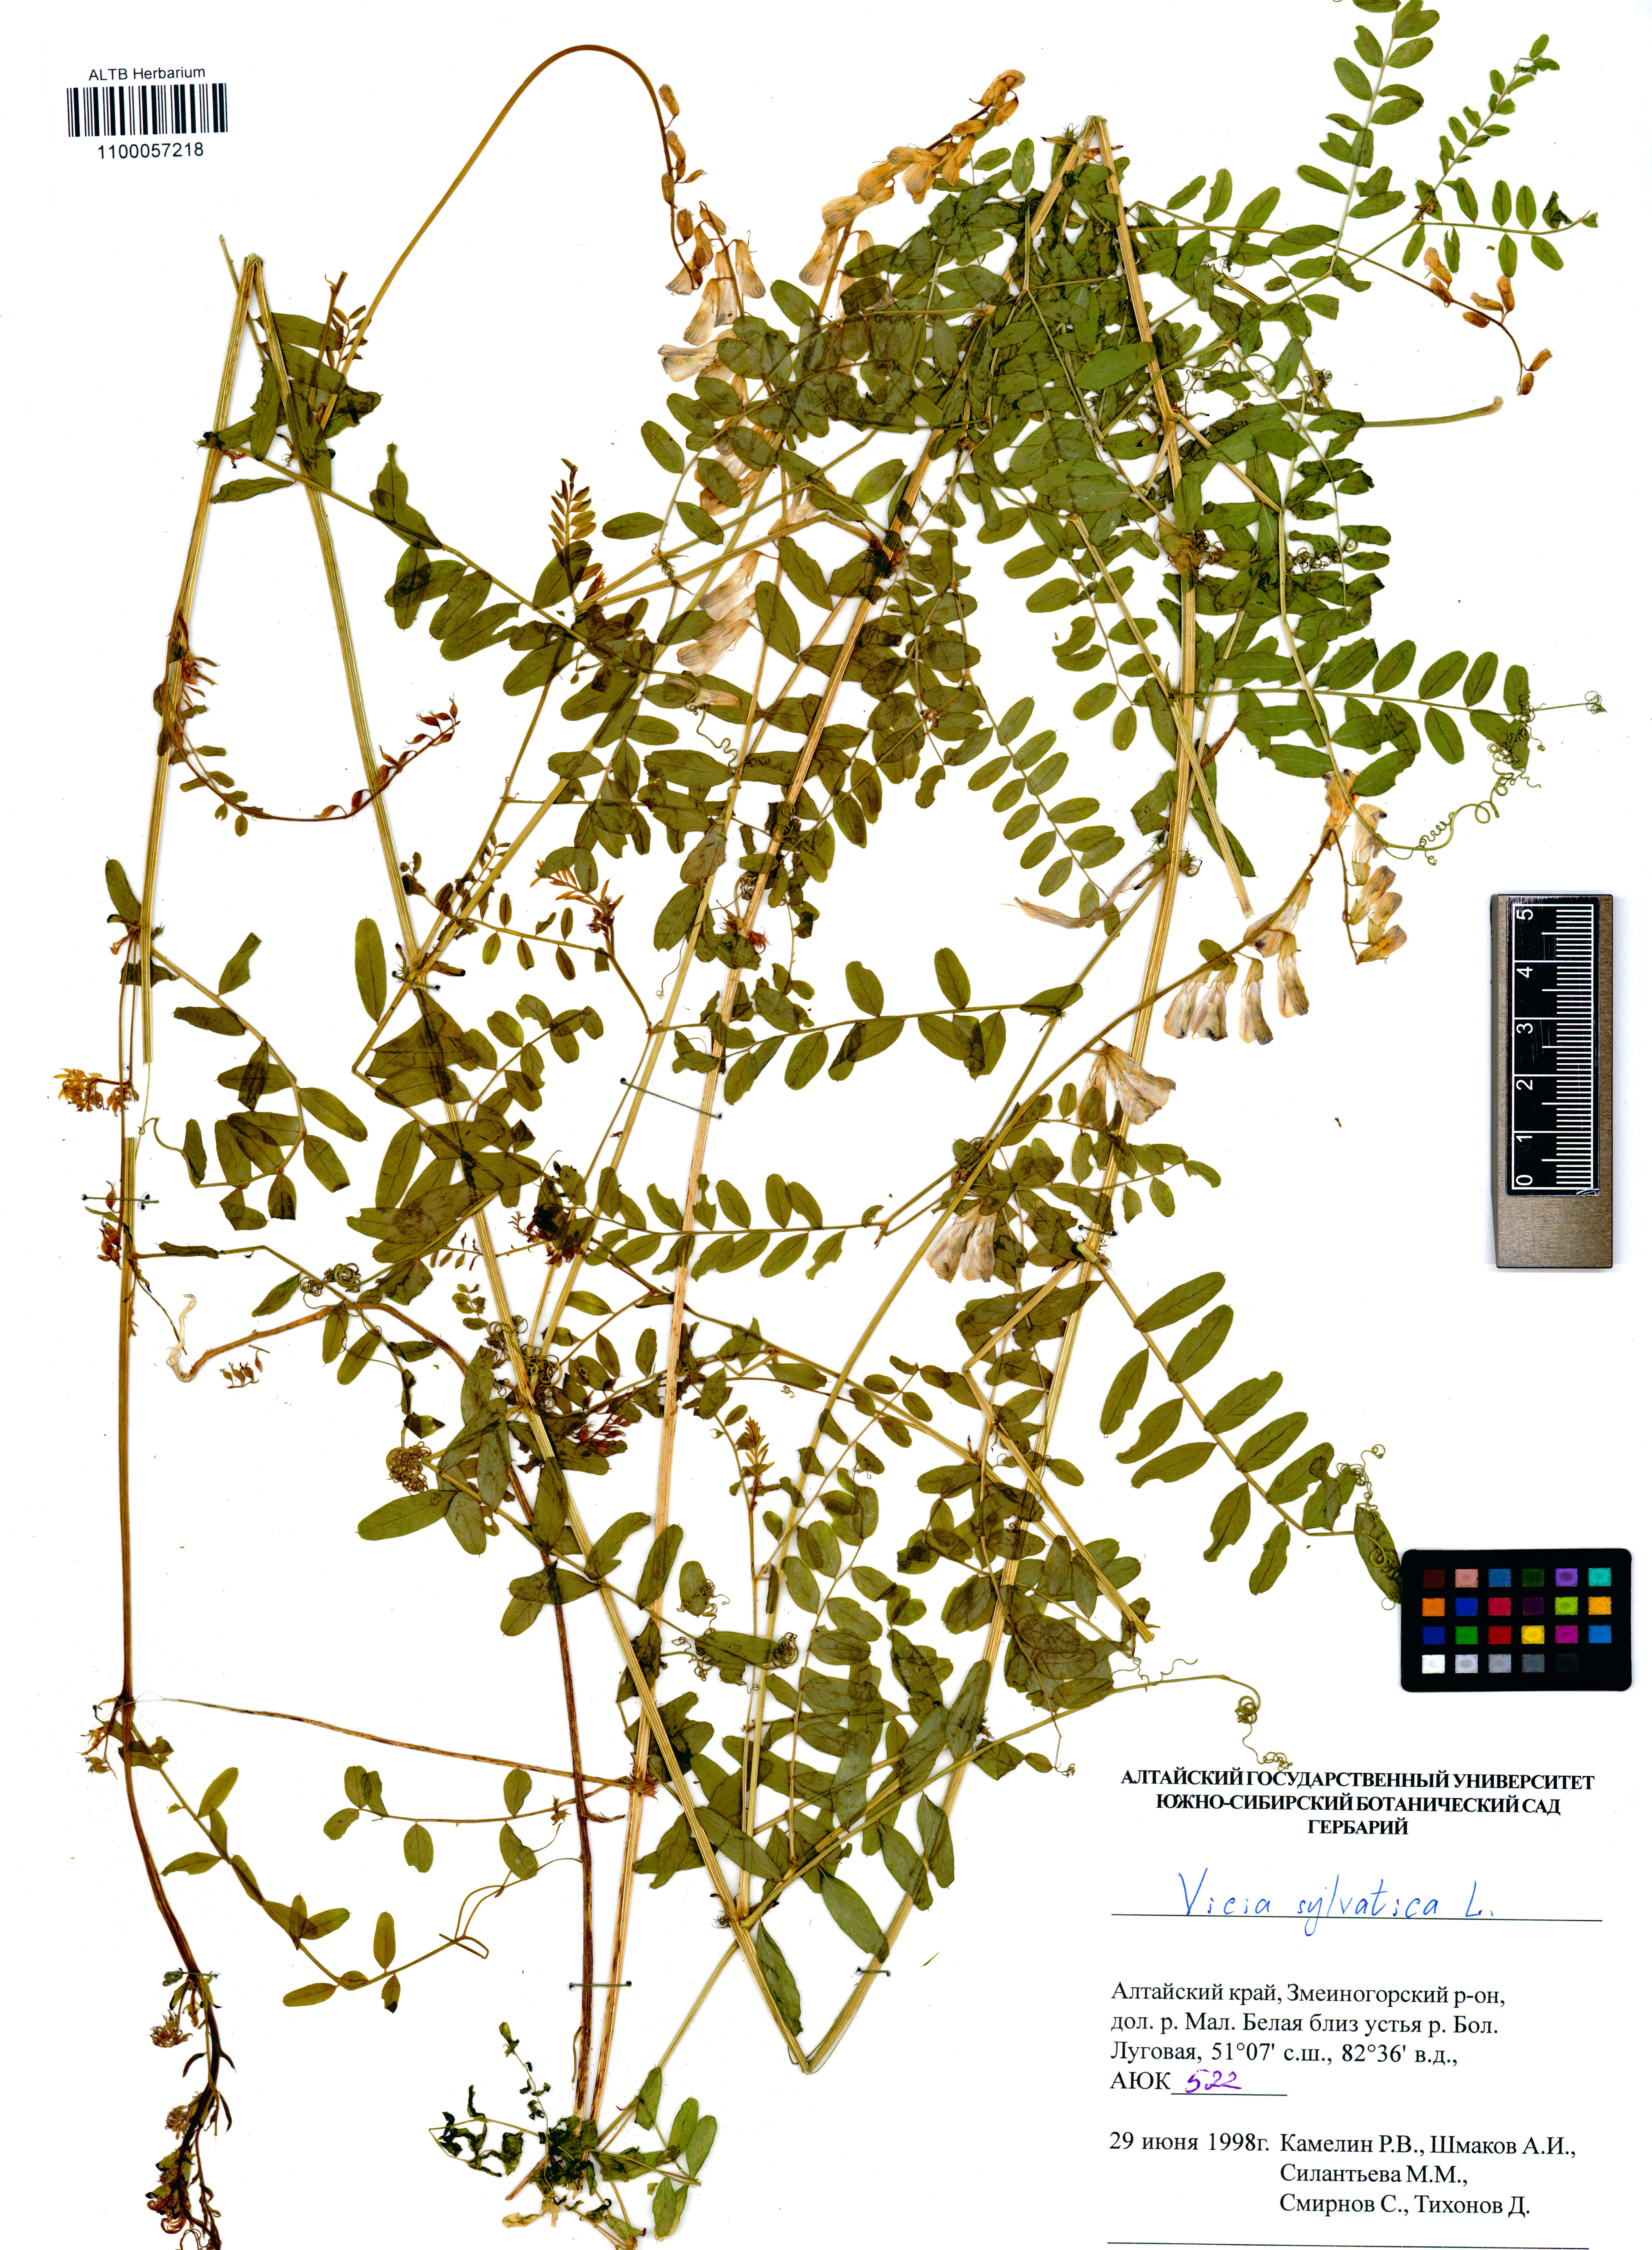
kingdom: Plantae
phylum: Tracheophyta
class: Magnoliopsida
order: Fabales
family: Fabaceae
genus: Vicia
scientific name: Vicia sylvatica
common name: Wood vetch
